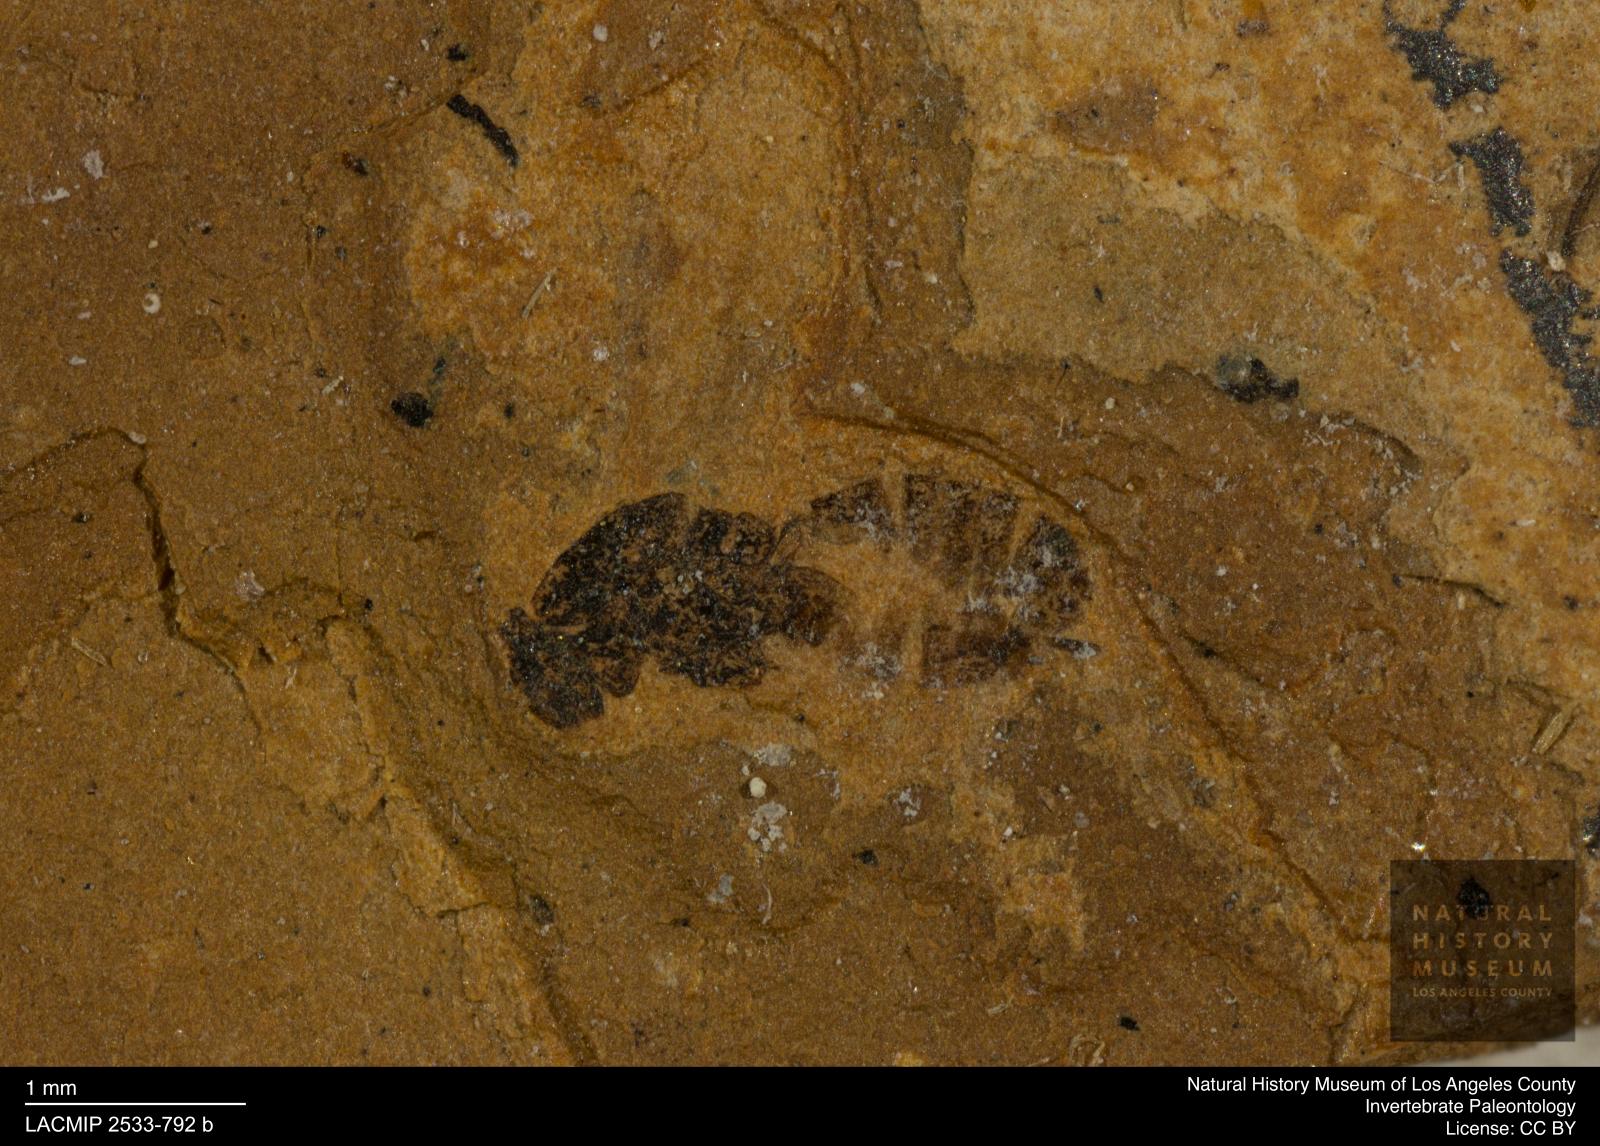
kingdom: Animalia
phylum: Arthropoda
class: Insecta
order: Hymenoptera
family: Braconidae
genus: Microplitis
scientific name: Microplitis
